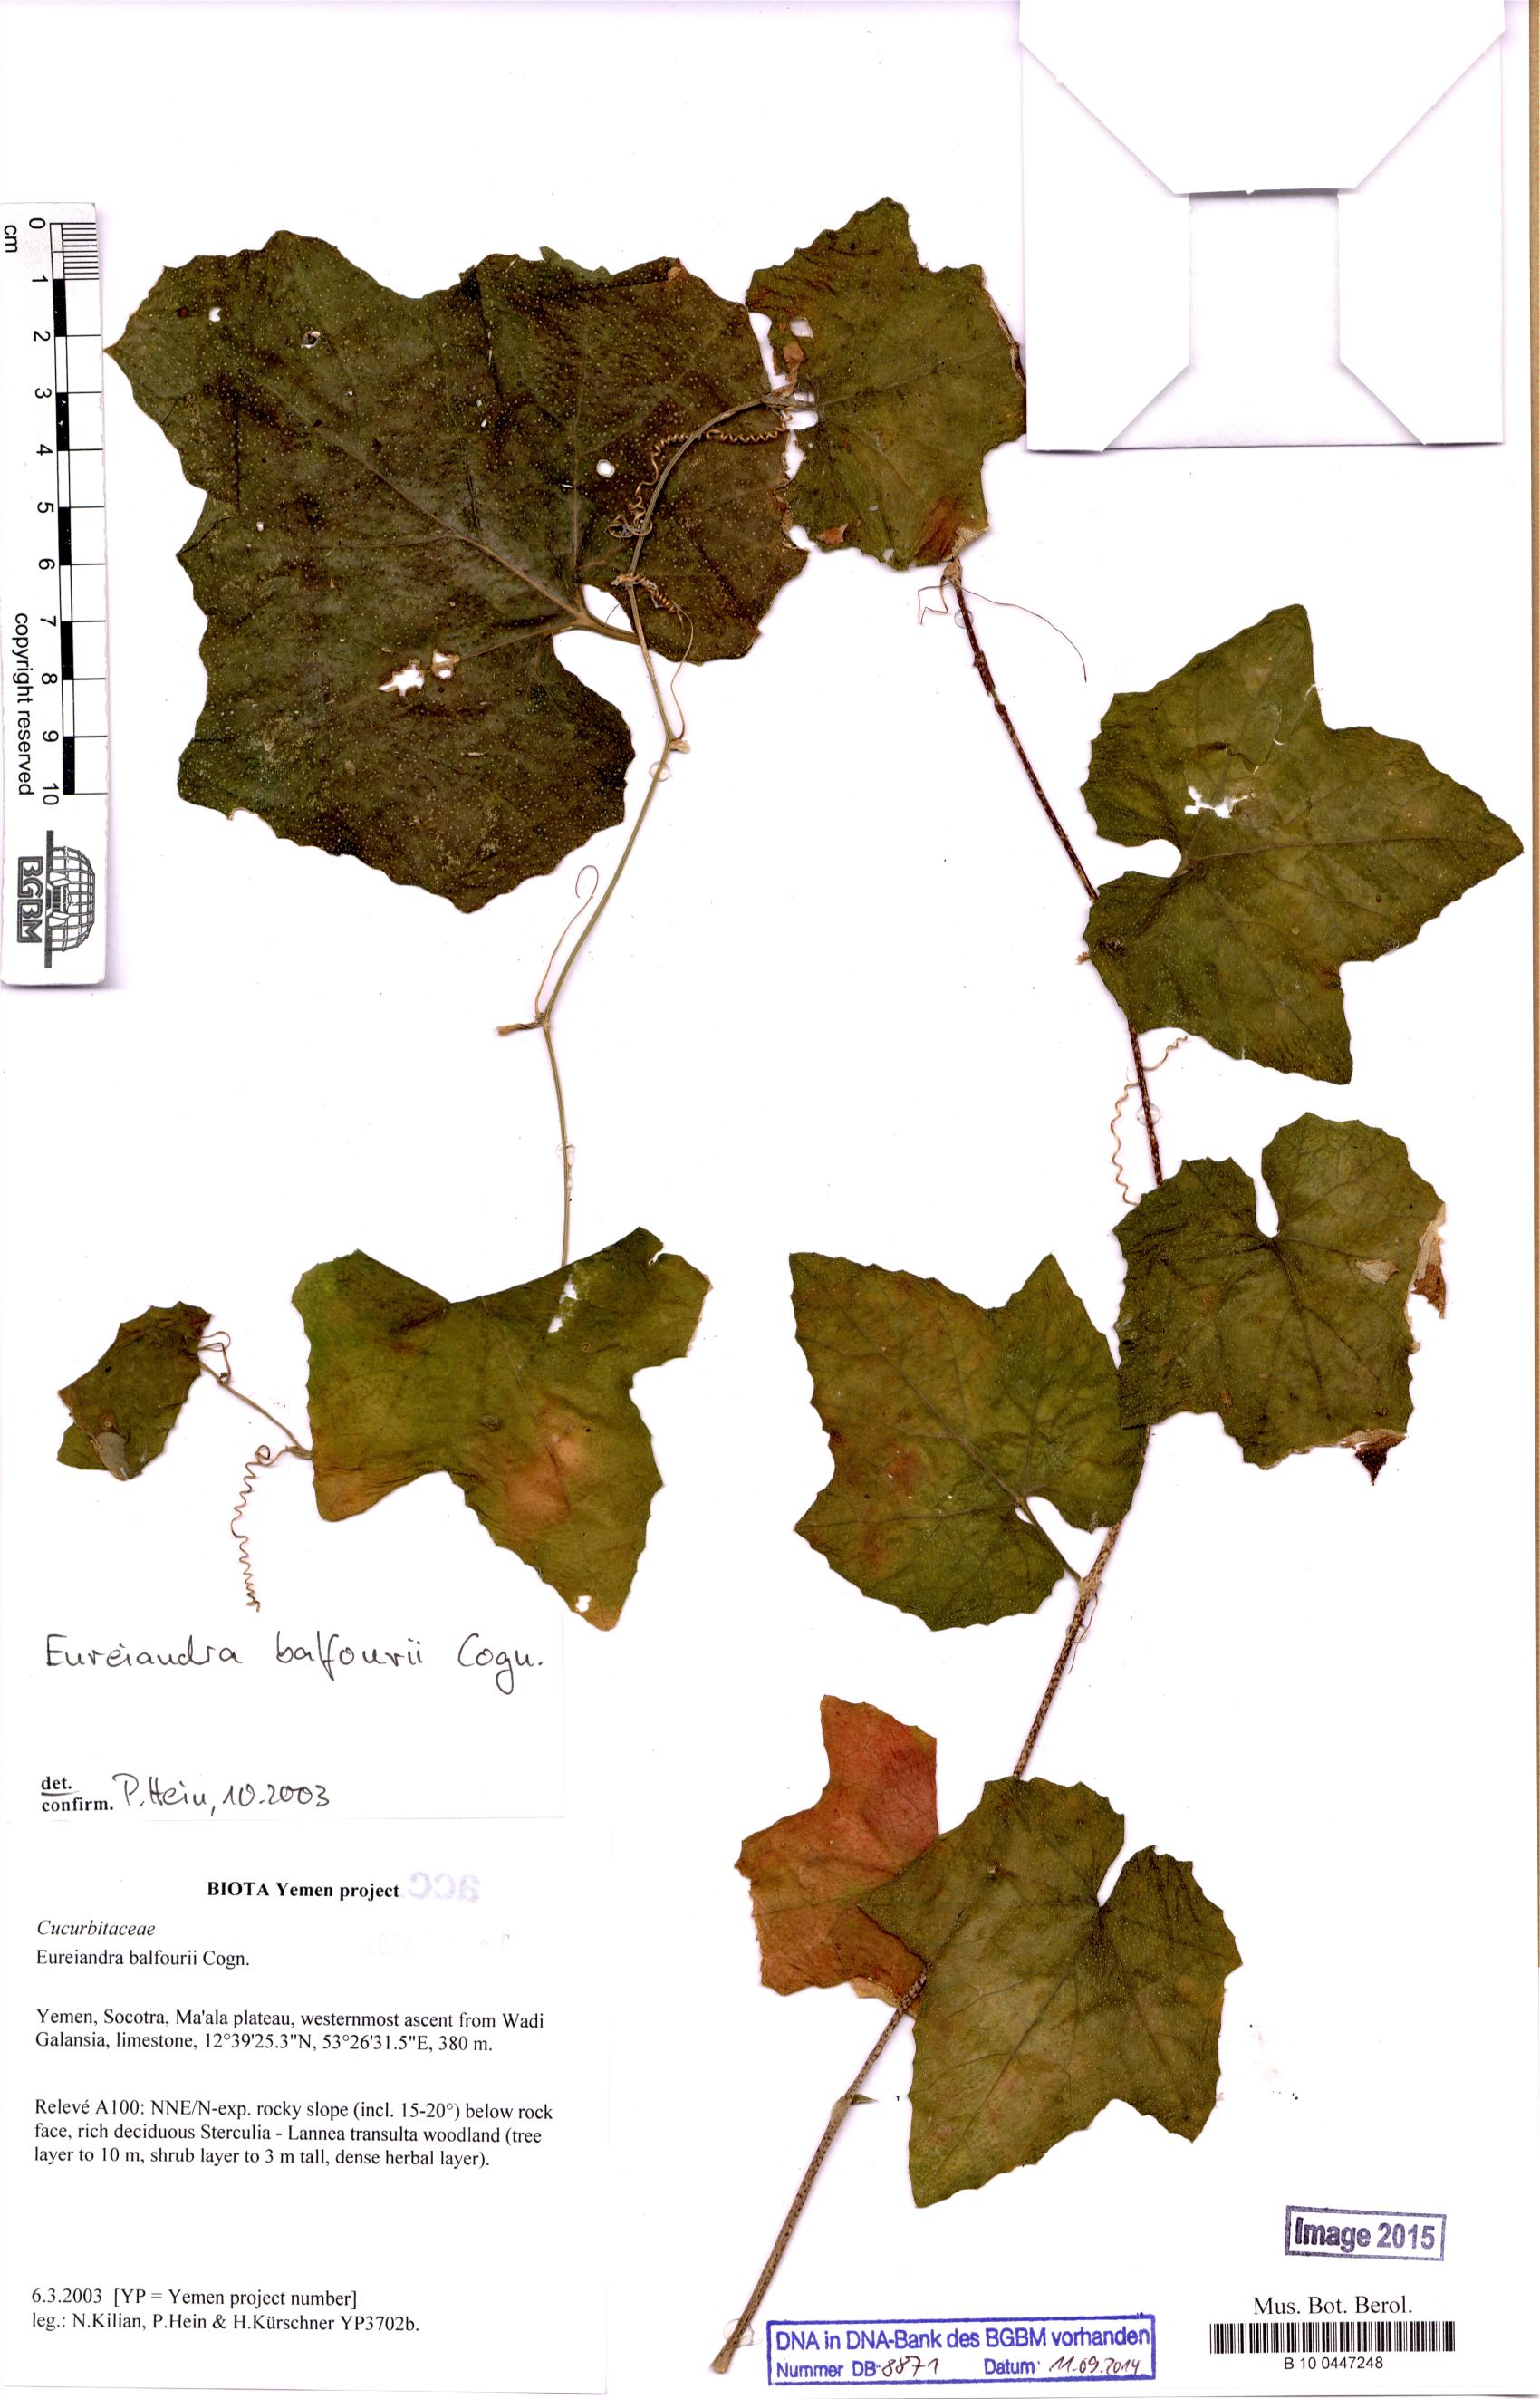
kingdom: Plantae
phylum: Tracheophyta
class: Magnoliopsida
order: Cucurbitales
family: Cucurbitaceae
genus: Eureiandra
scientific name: Eureiandra balfourii
